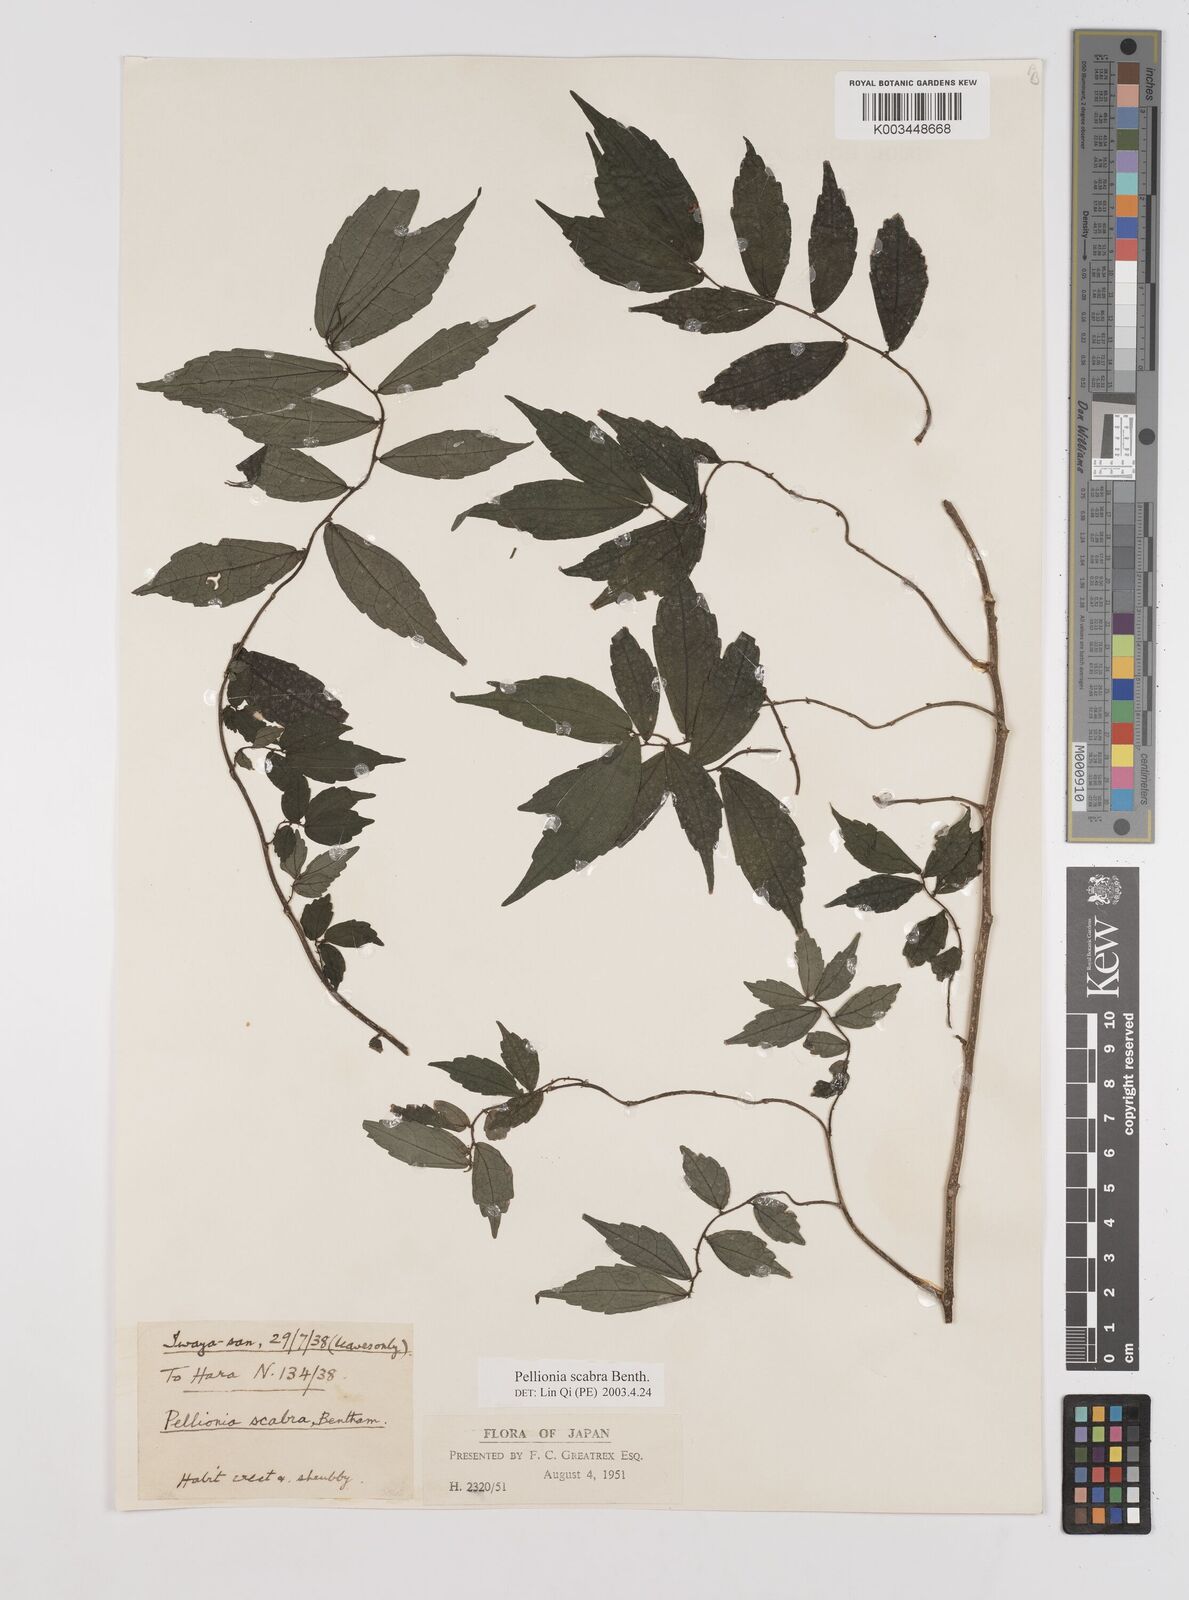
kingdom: Plantae
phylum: Tracheophyta
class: Magnoliopsida
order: Rosales
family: Urticaceae
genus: Elatostema
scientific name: Elatostema
